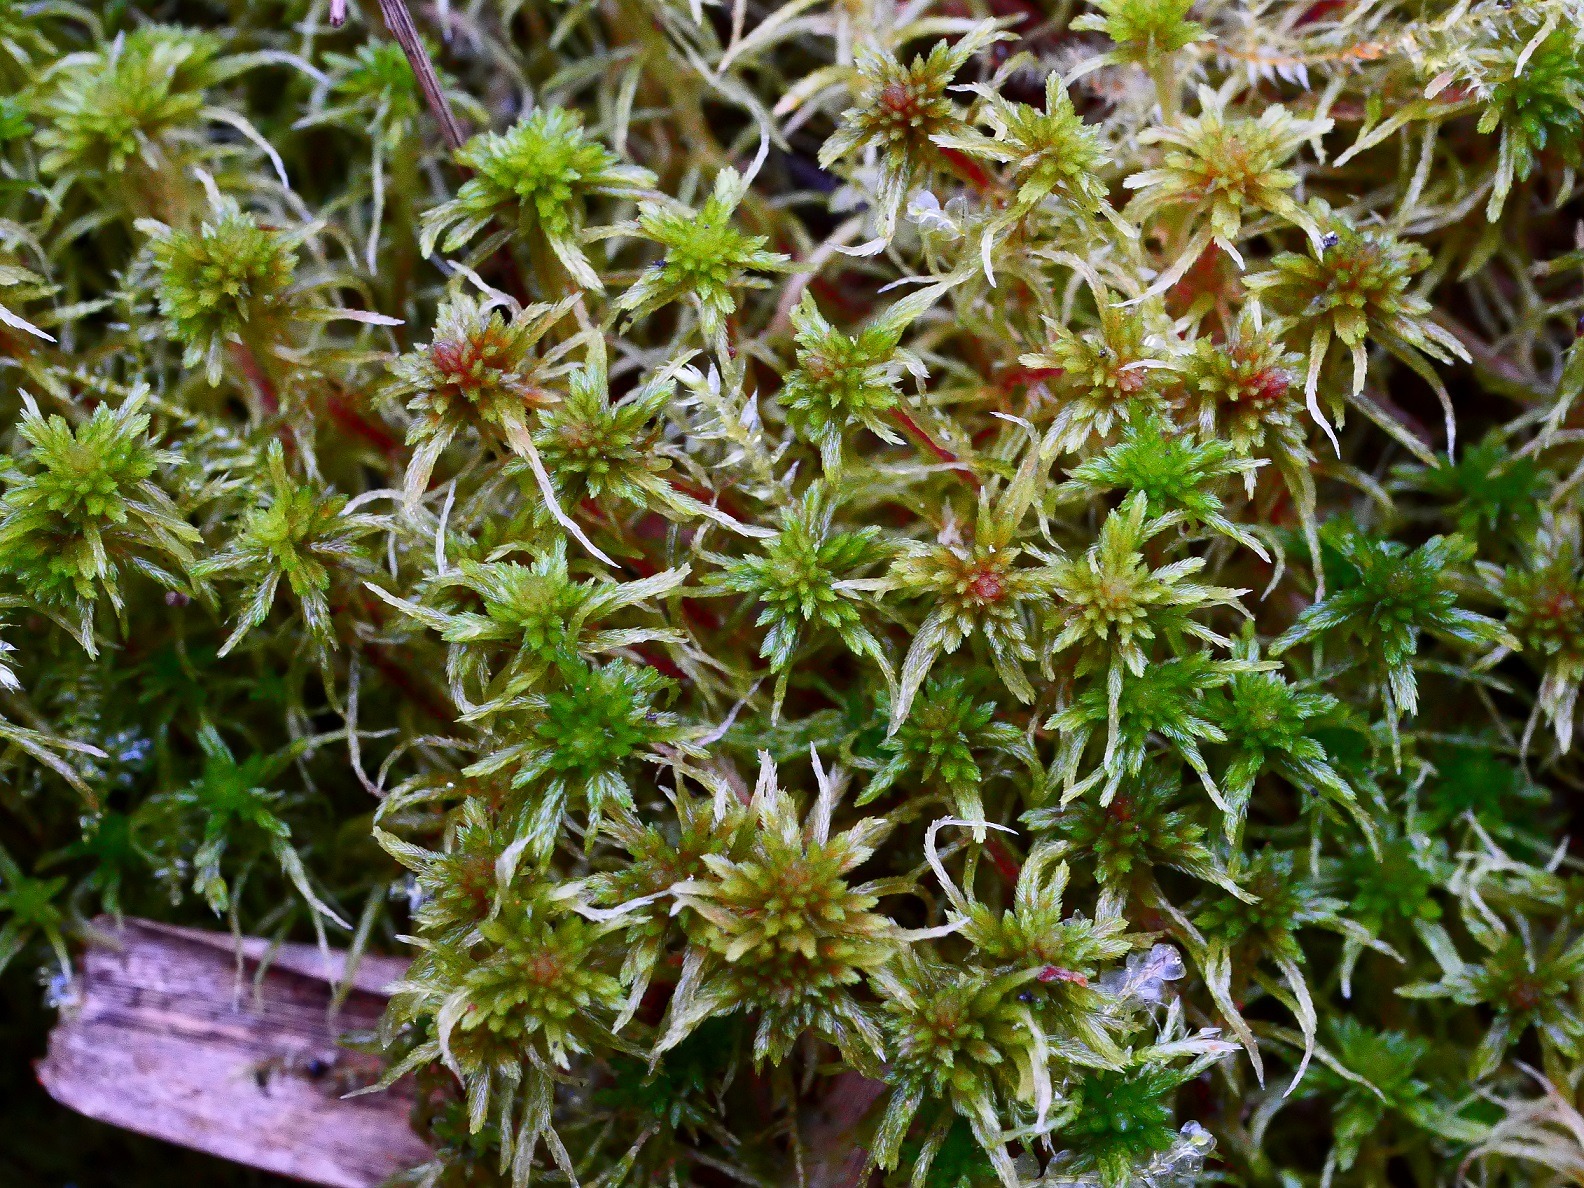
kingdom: Plantae
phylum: Bryophyta
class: Sphagnopsida
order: Sphagnales
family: Sphagnaceae
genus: Sphagnum
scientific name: Sphagnum warnstorfii
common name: Blygrå tørvemos
